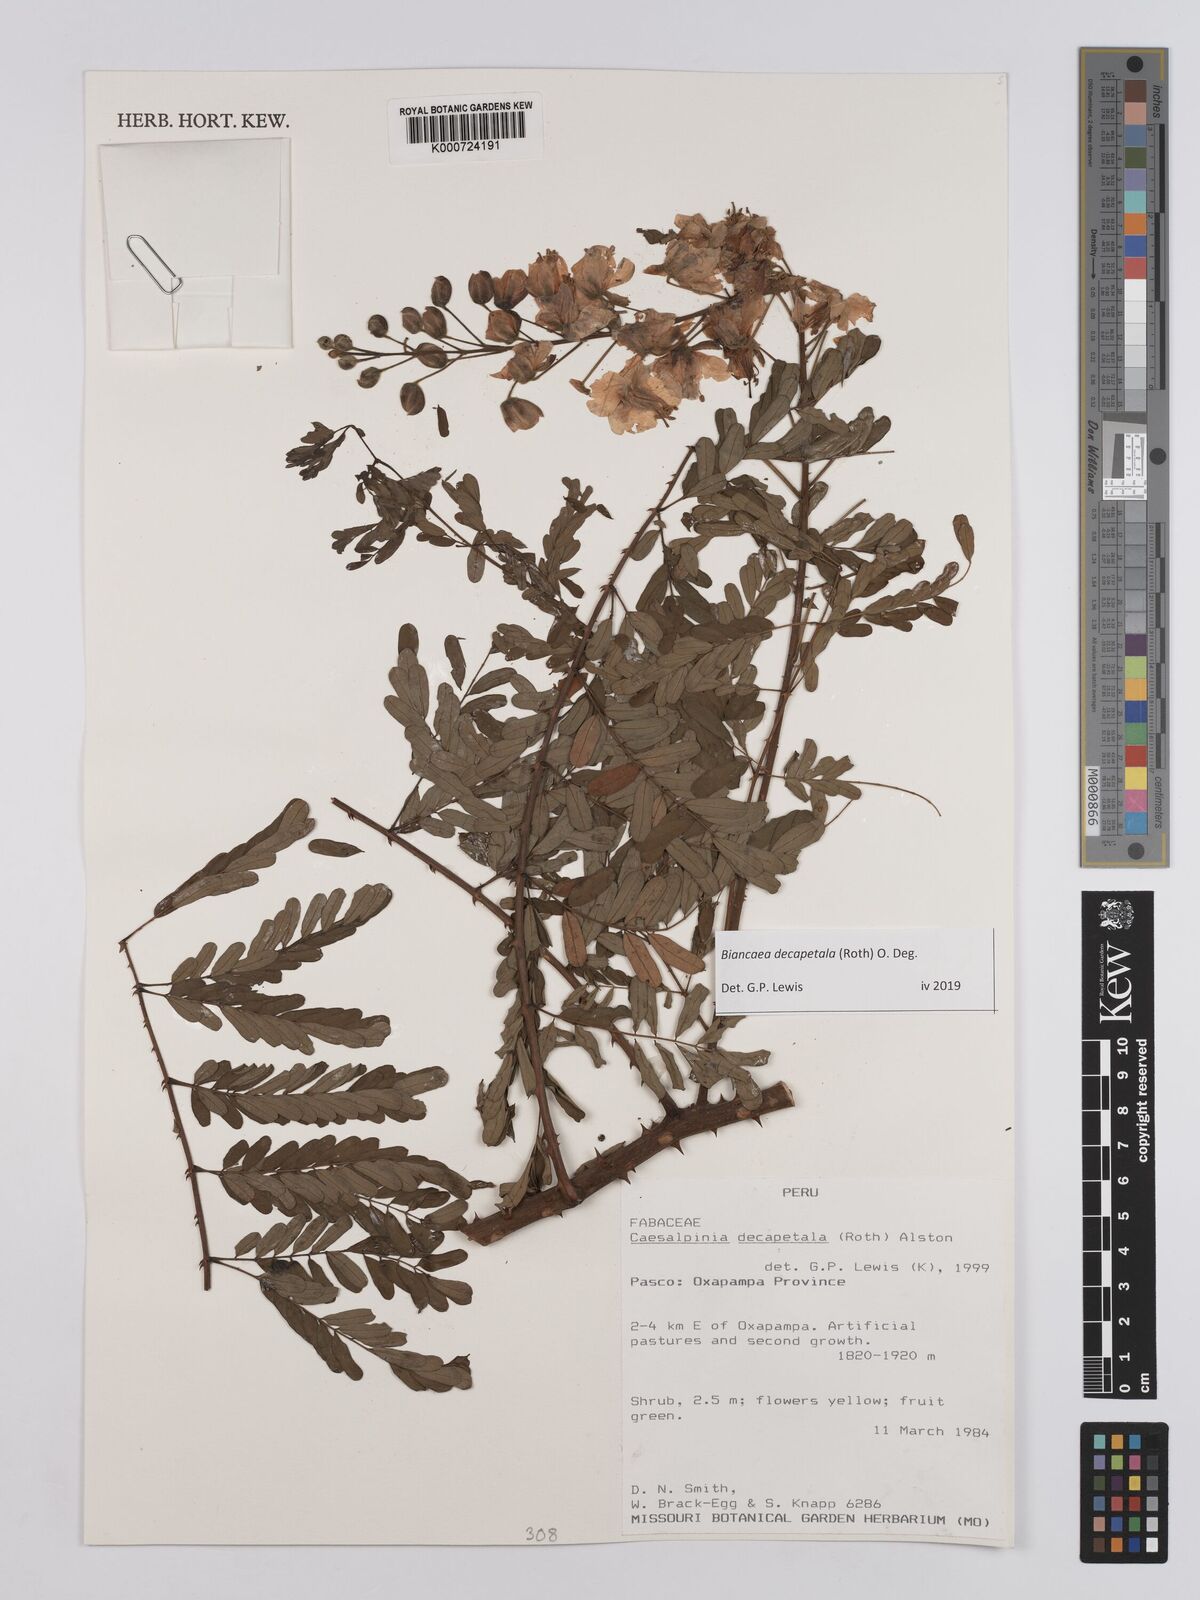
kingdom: Plantae
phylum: Tracheophyta
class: Magnoliopsida
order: Fabales
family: Fabaceae
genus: Biancaea
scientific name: Biancaea decapetala
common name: Cat's claw
